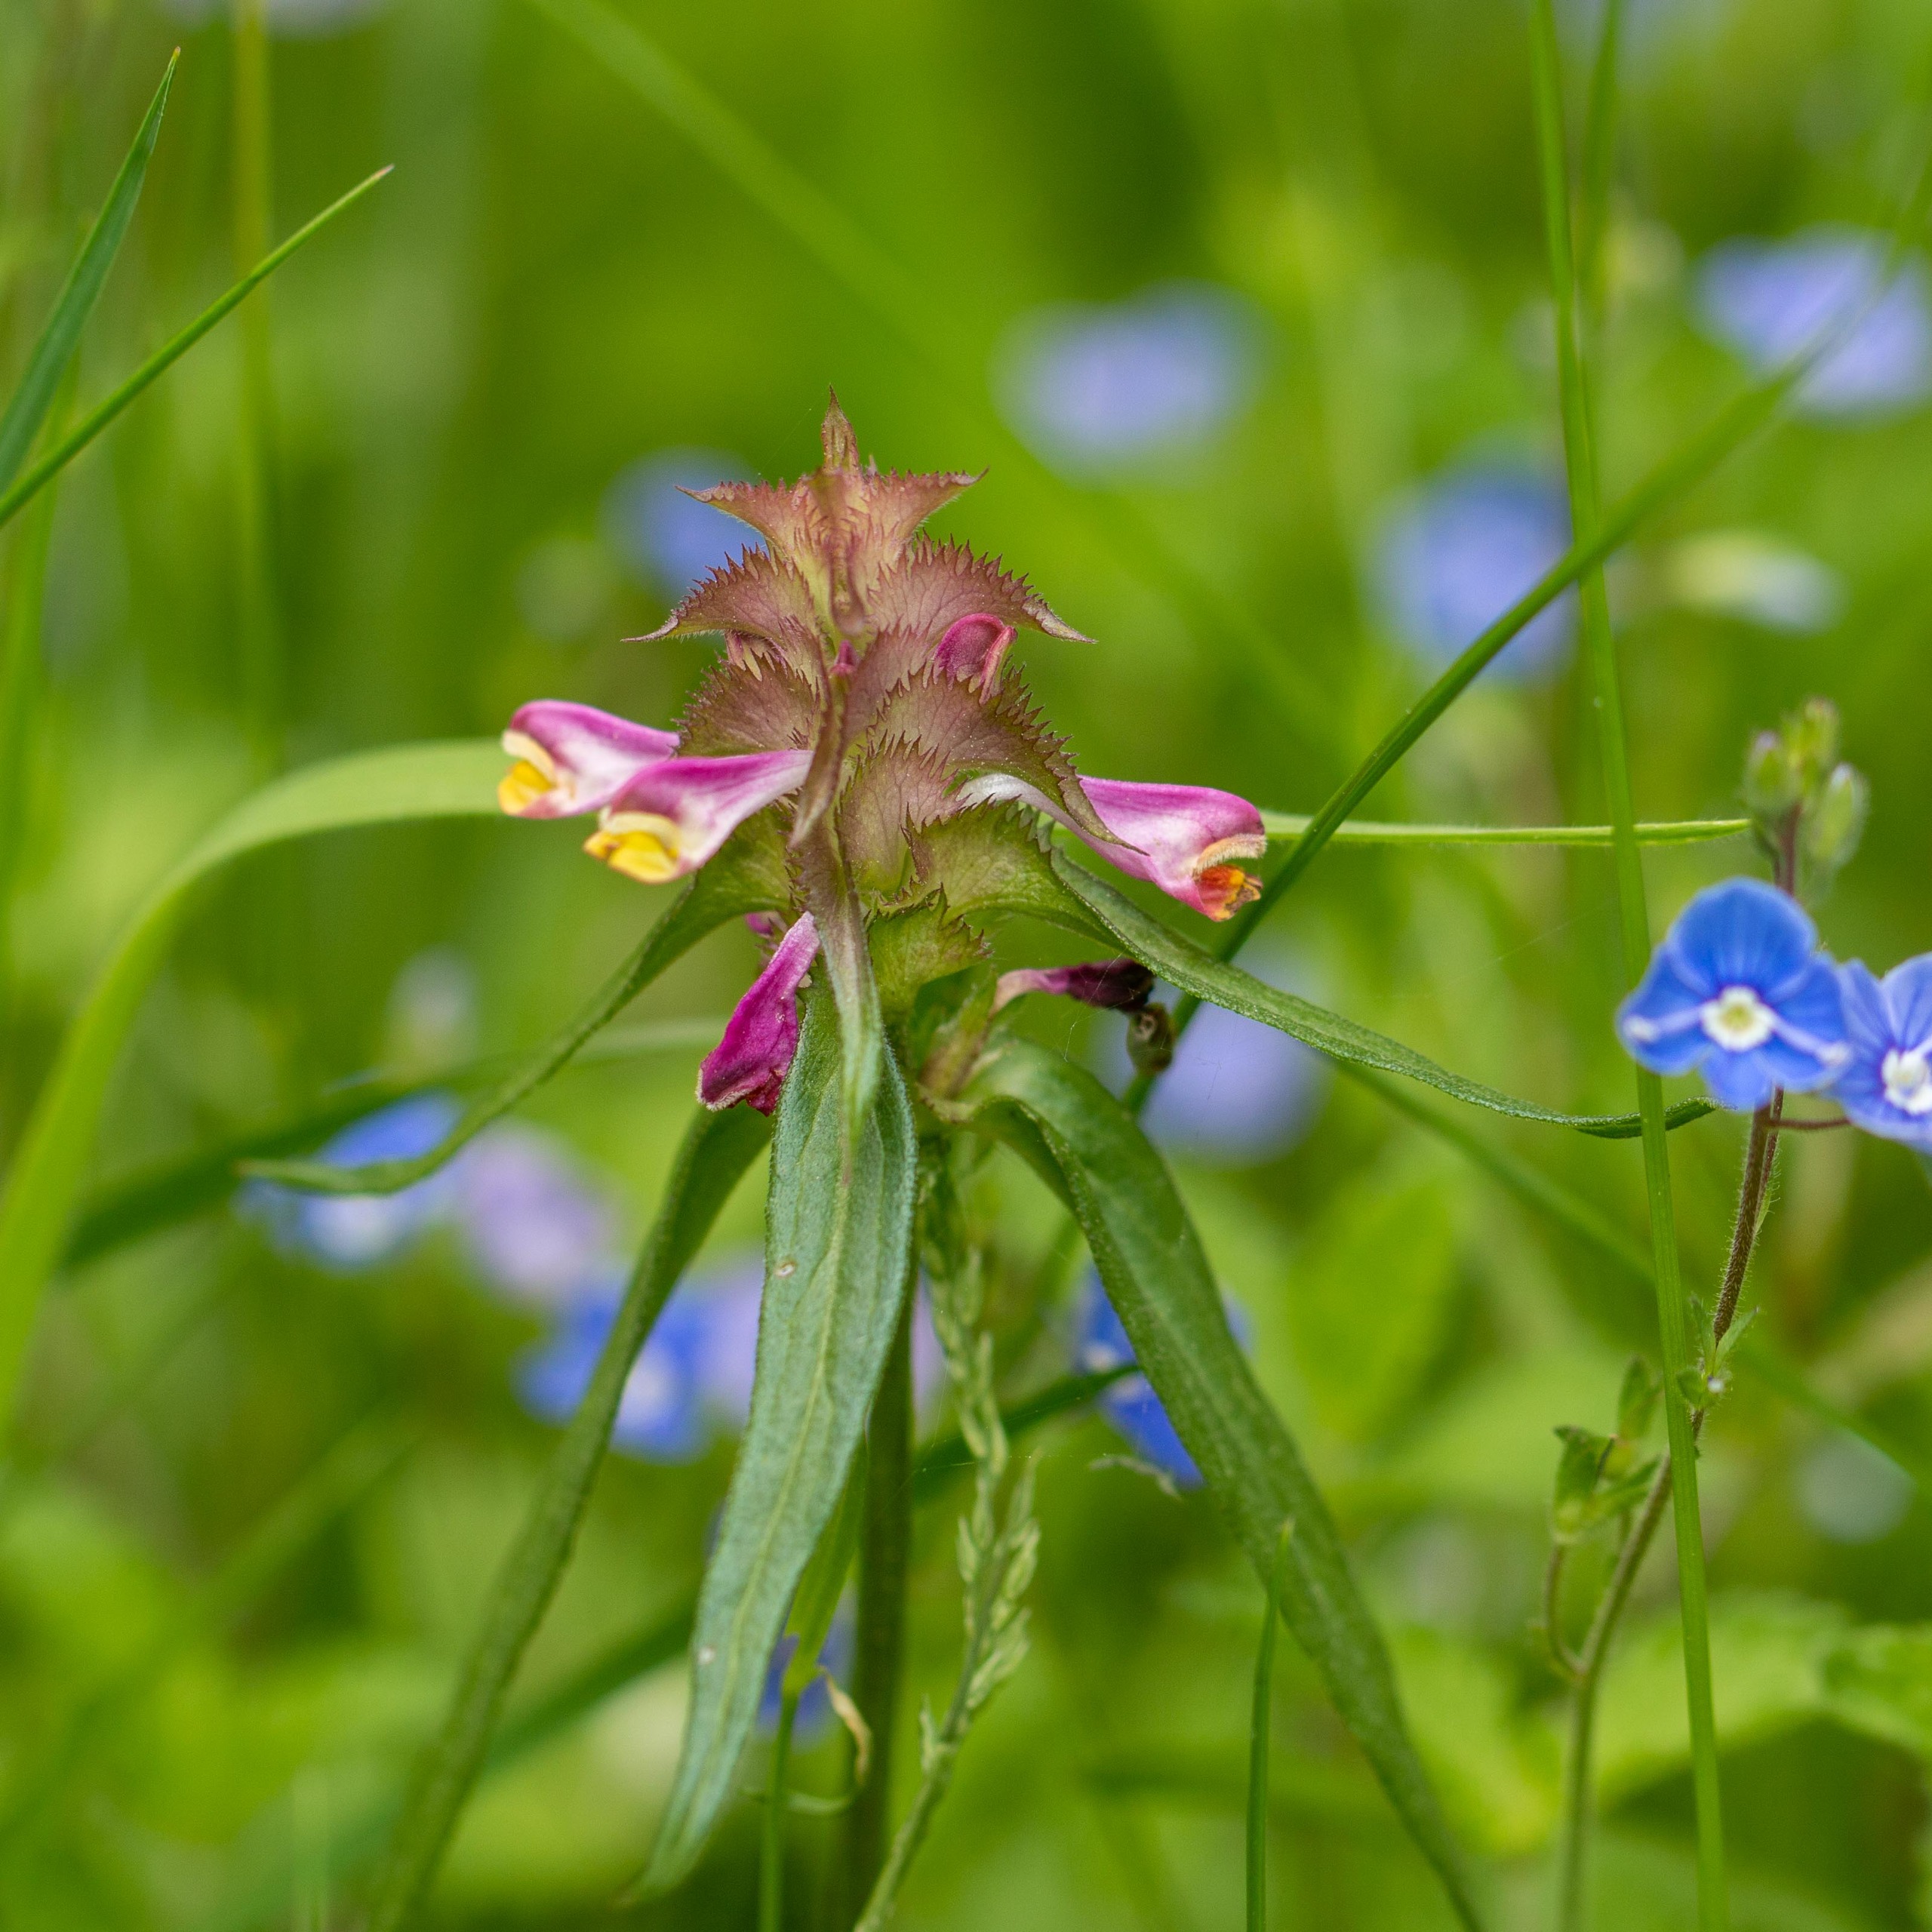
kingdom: Plantae
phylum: Tracheophyta
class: Magnoliopsida
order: Lamiales
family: Orobanchaceae
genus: Melampyrum
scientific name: Melampyrum cristatum
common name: Kantet kohvede
